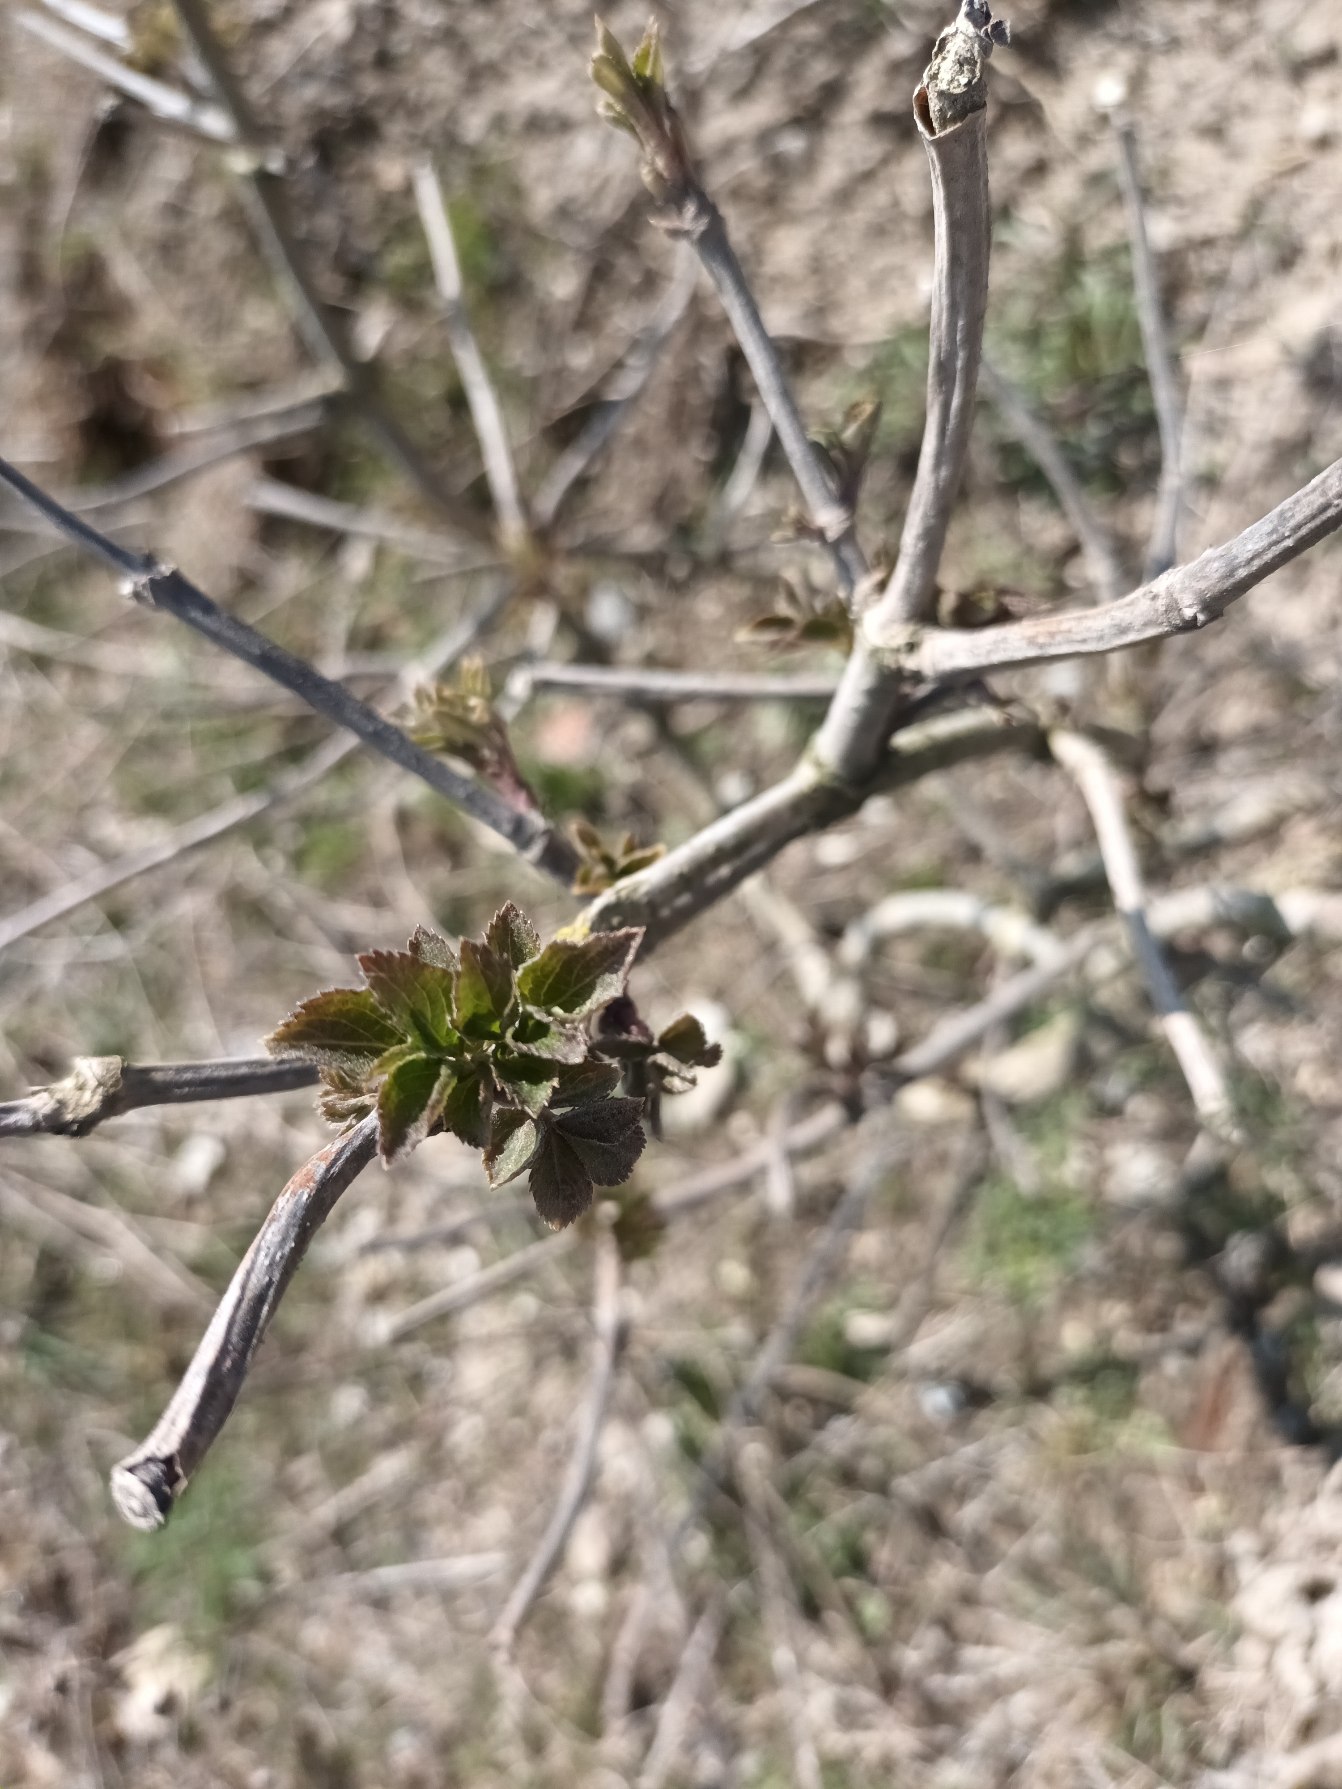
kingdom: Plantae
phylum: Tracheophyta
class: Magnoliopsida
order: Dipsacales
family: Viburnaceae
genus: Sambucus
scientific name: Sambucus nigra
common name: Almindelig hyld
